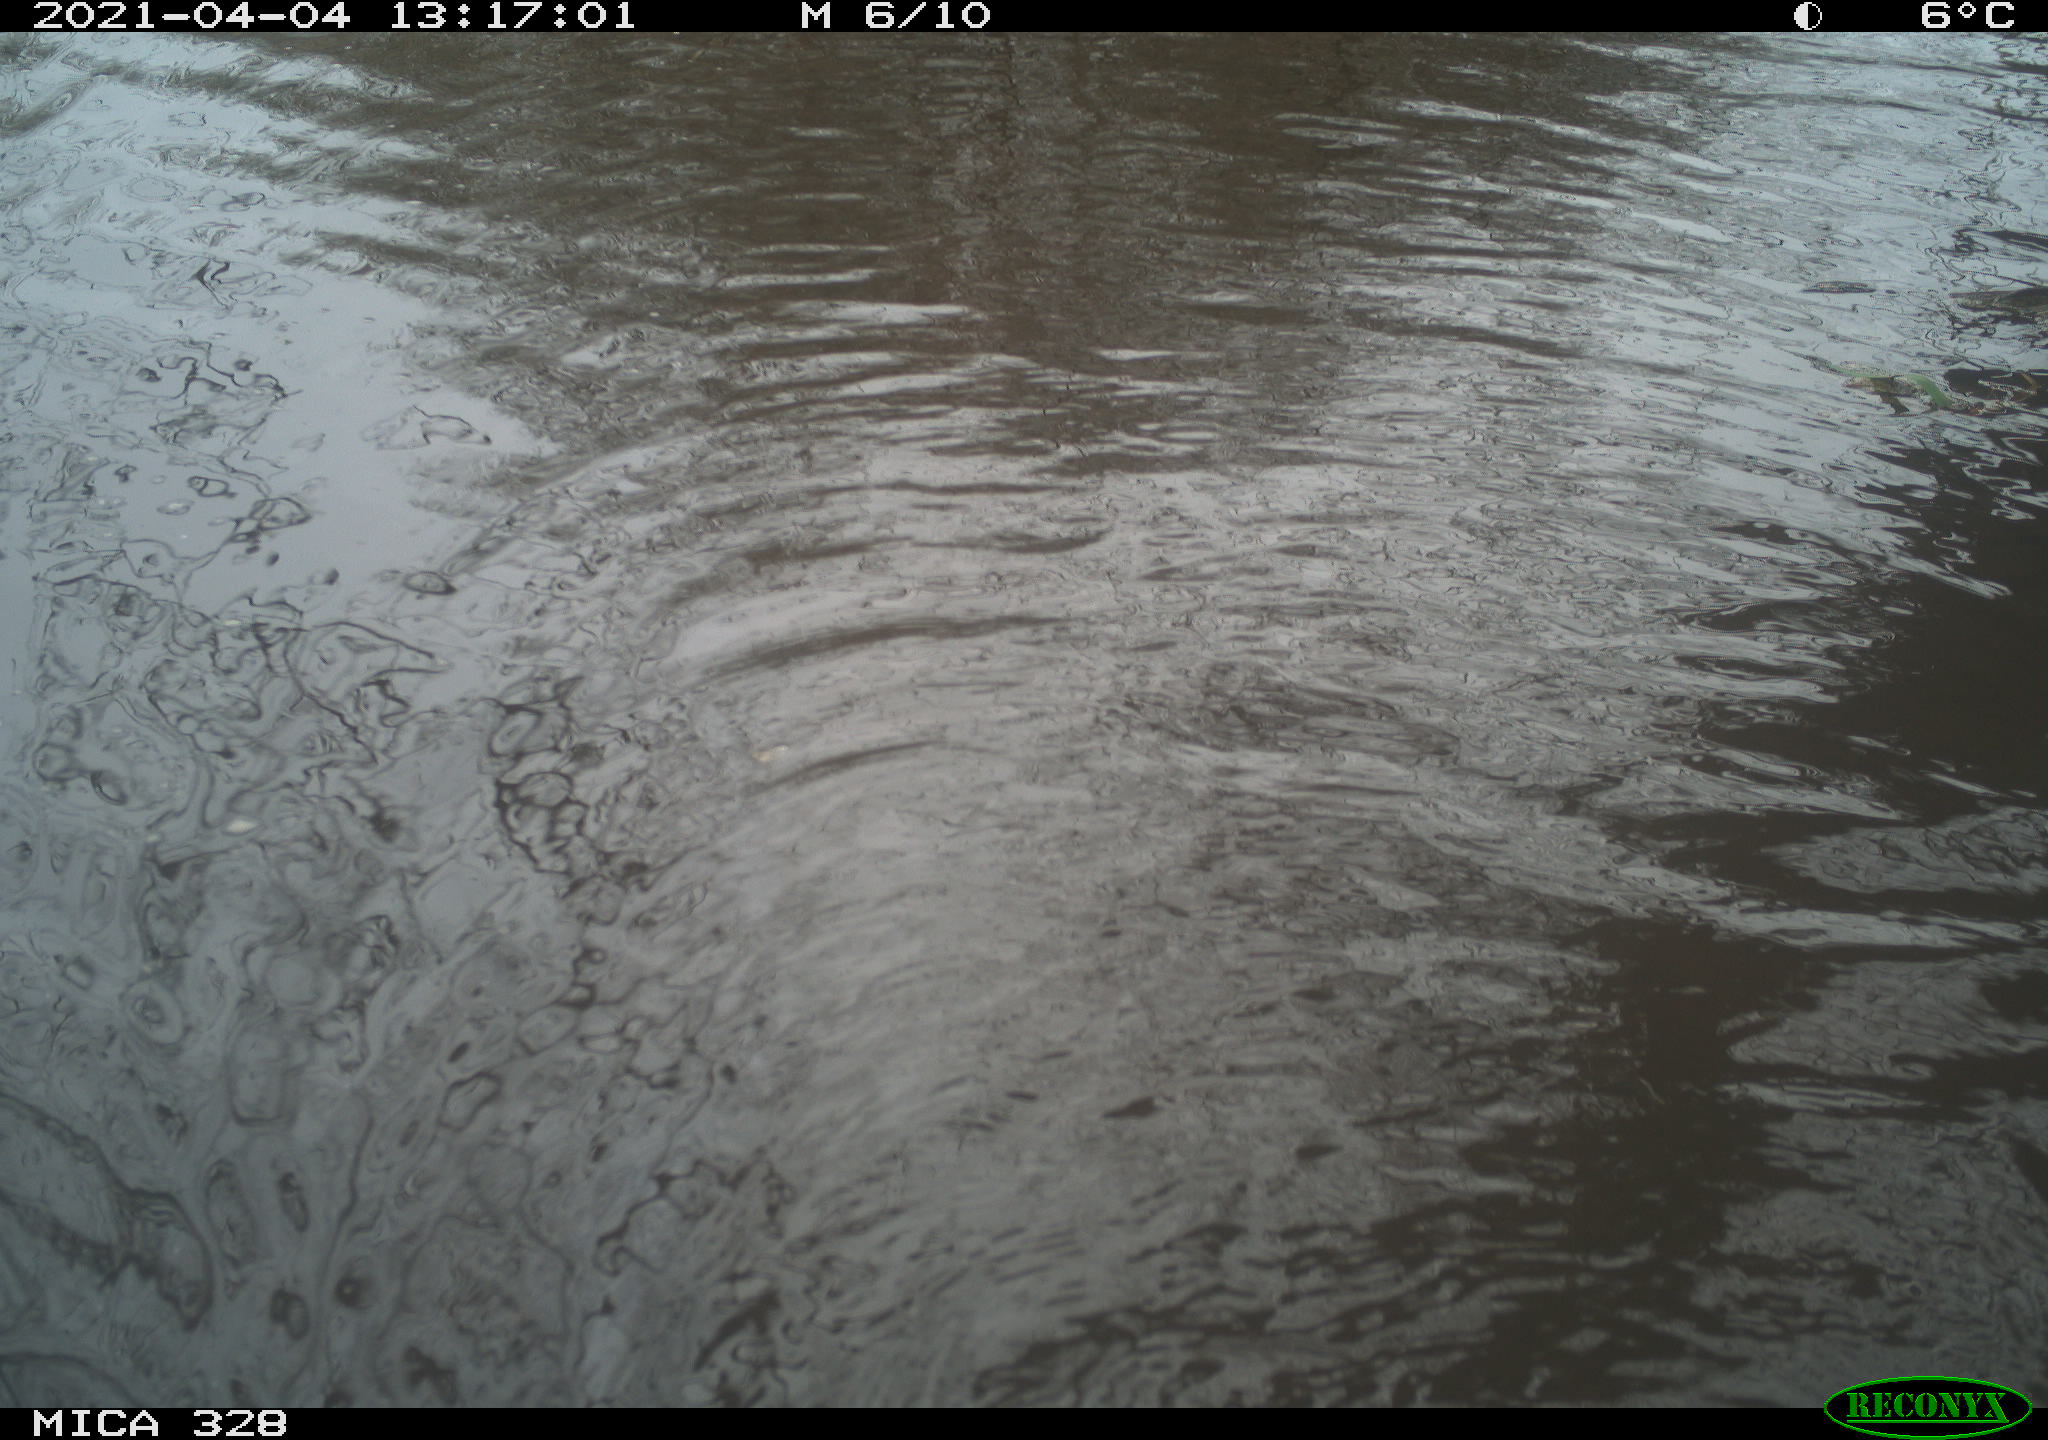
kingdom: Animalia
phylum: Chordata
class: Mammalia
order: Rodentia
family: Cricetidae
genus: Ondatra
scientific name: Ondatra zibethicus
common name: Muskrat
